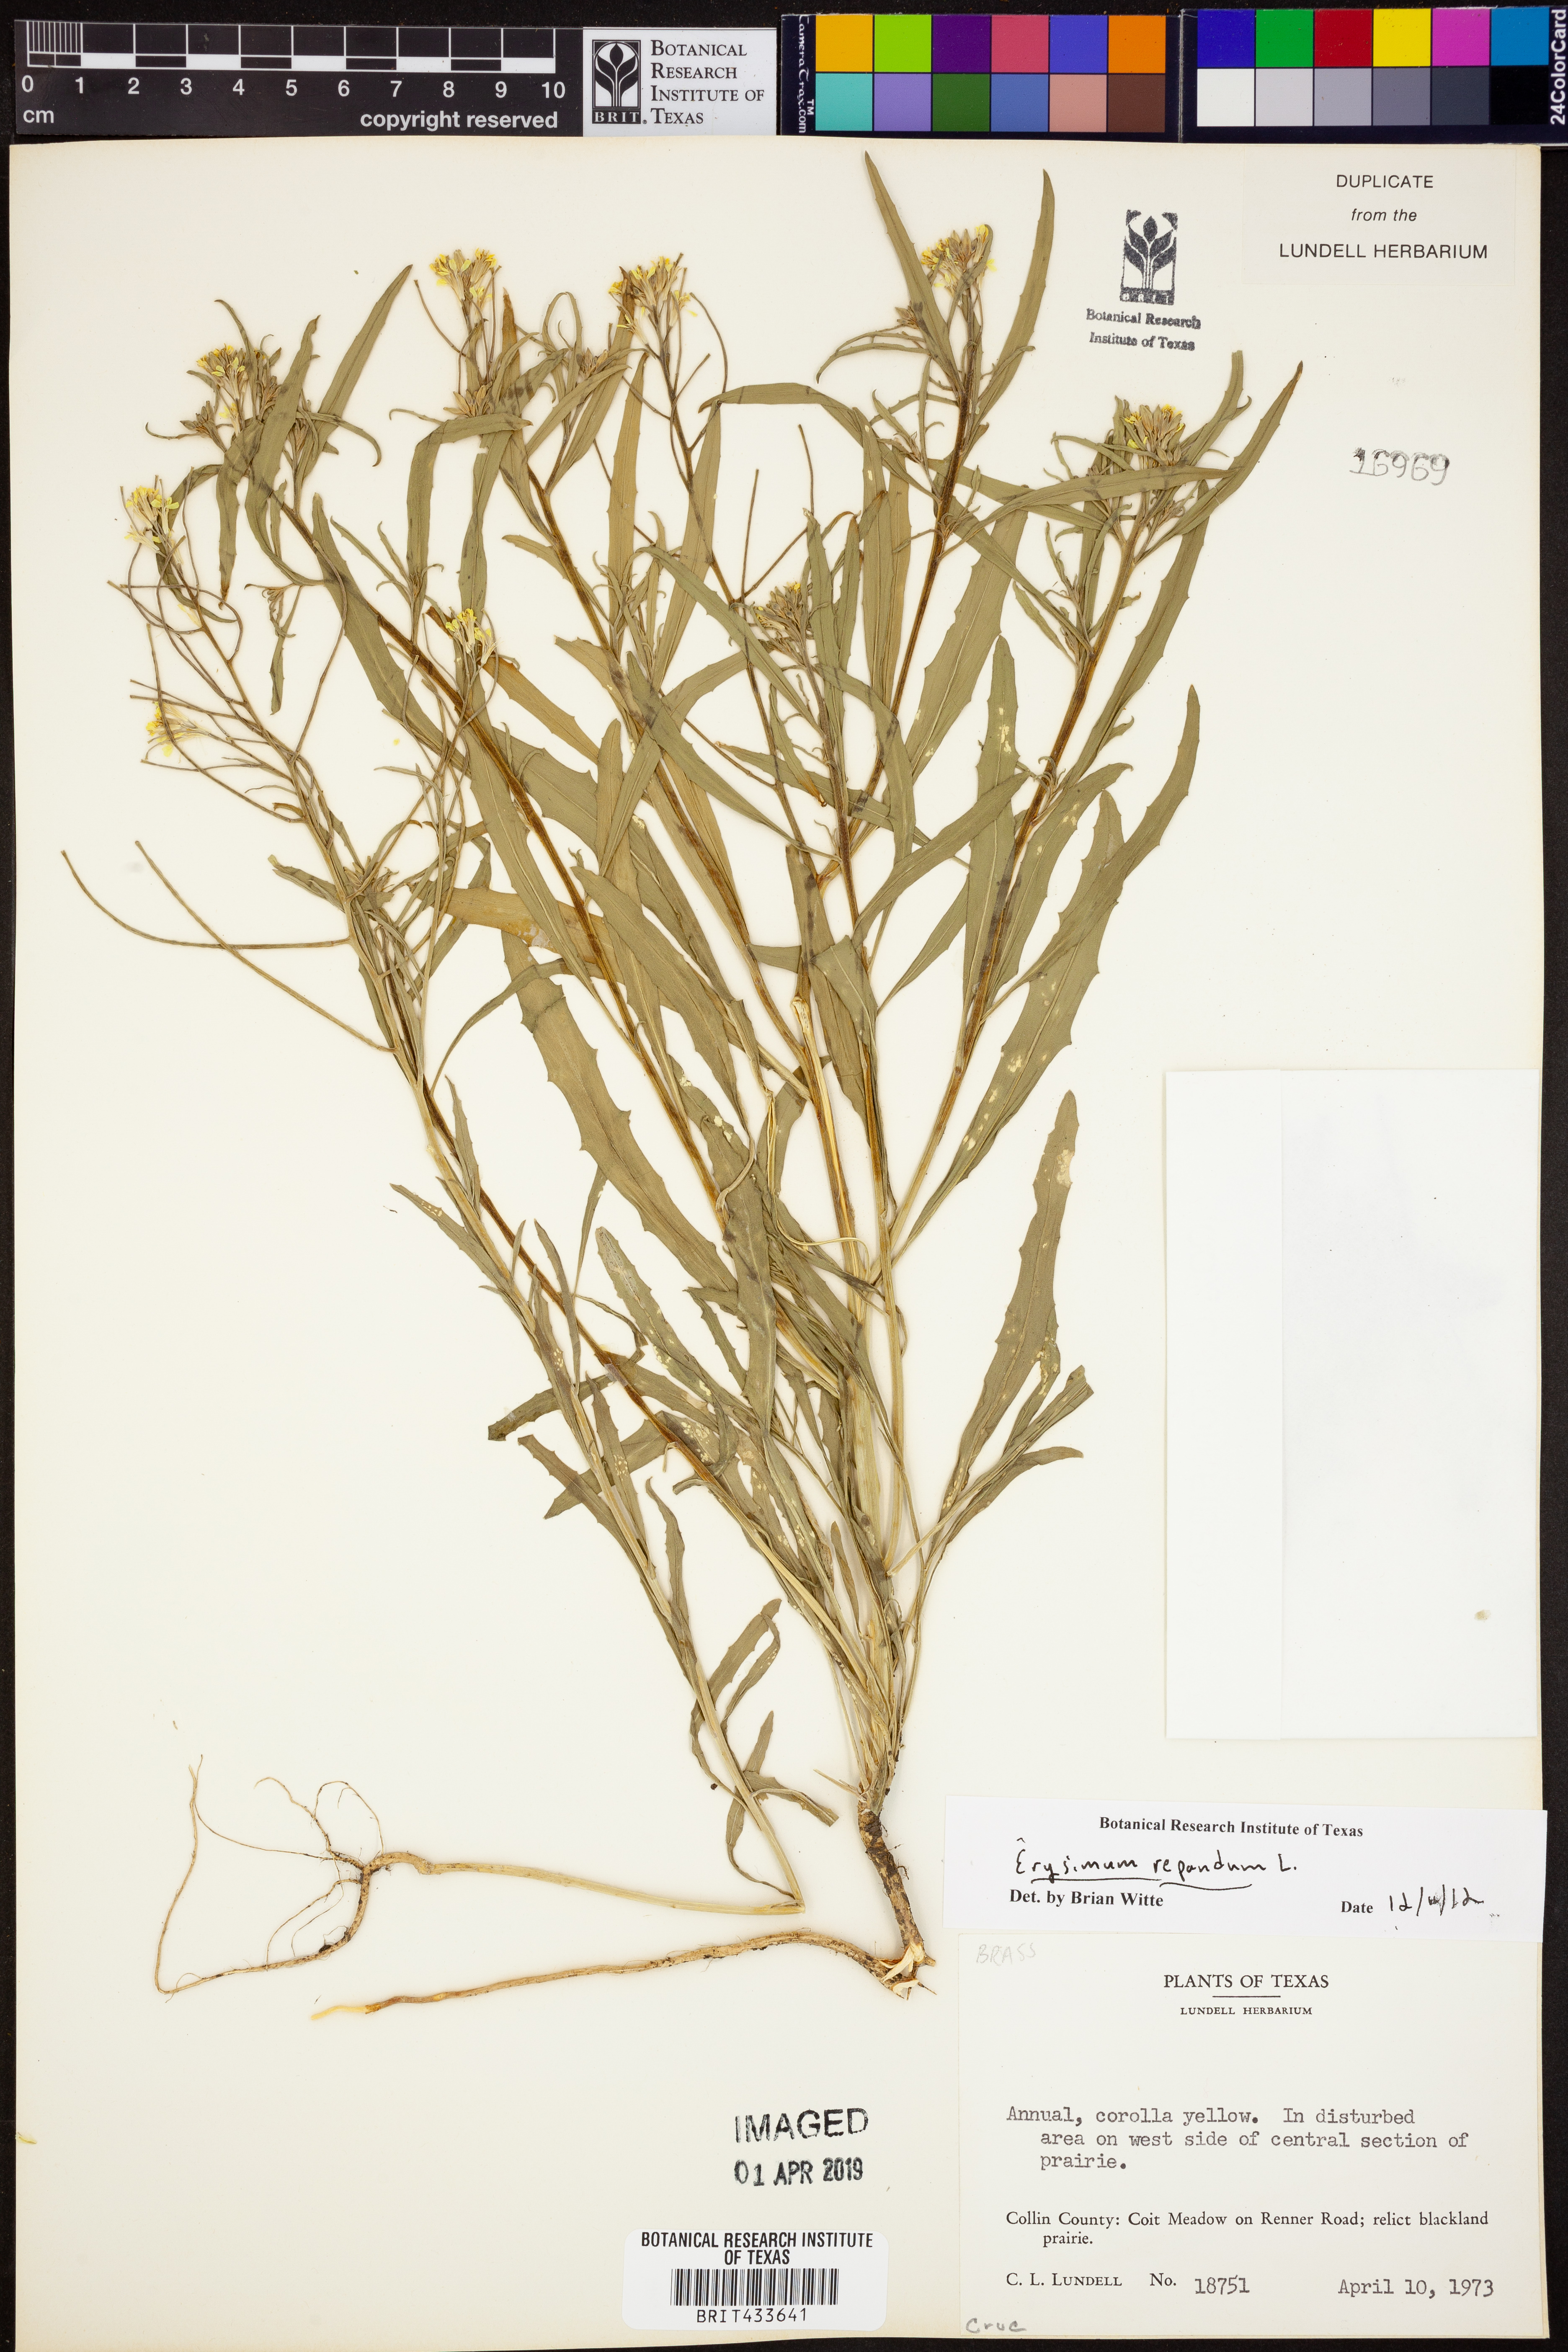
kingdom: Plantae
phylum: Tracheophyta
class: Magnoliopsida
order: Brassicales
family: Brassicaceae
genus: Erysimum
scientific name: Erysimum repandum
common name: Spreading wallflower
